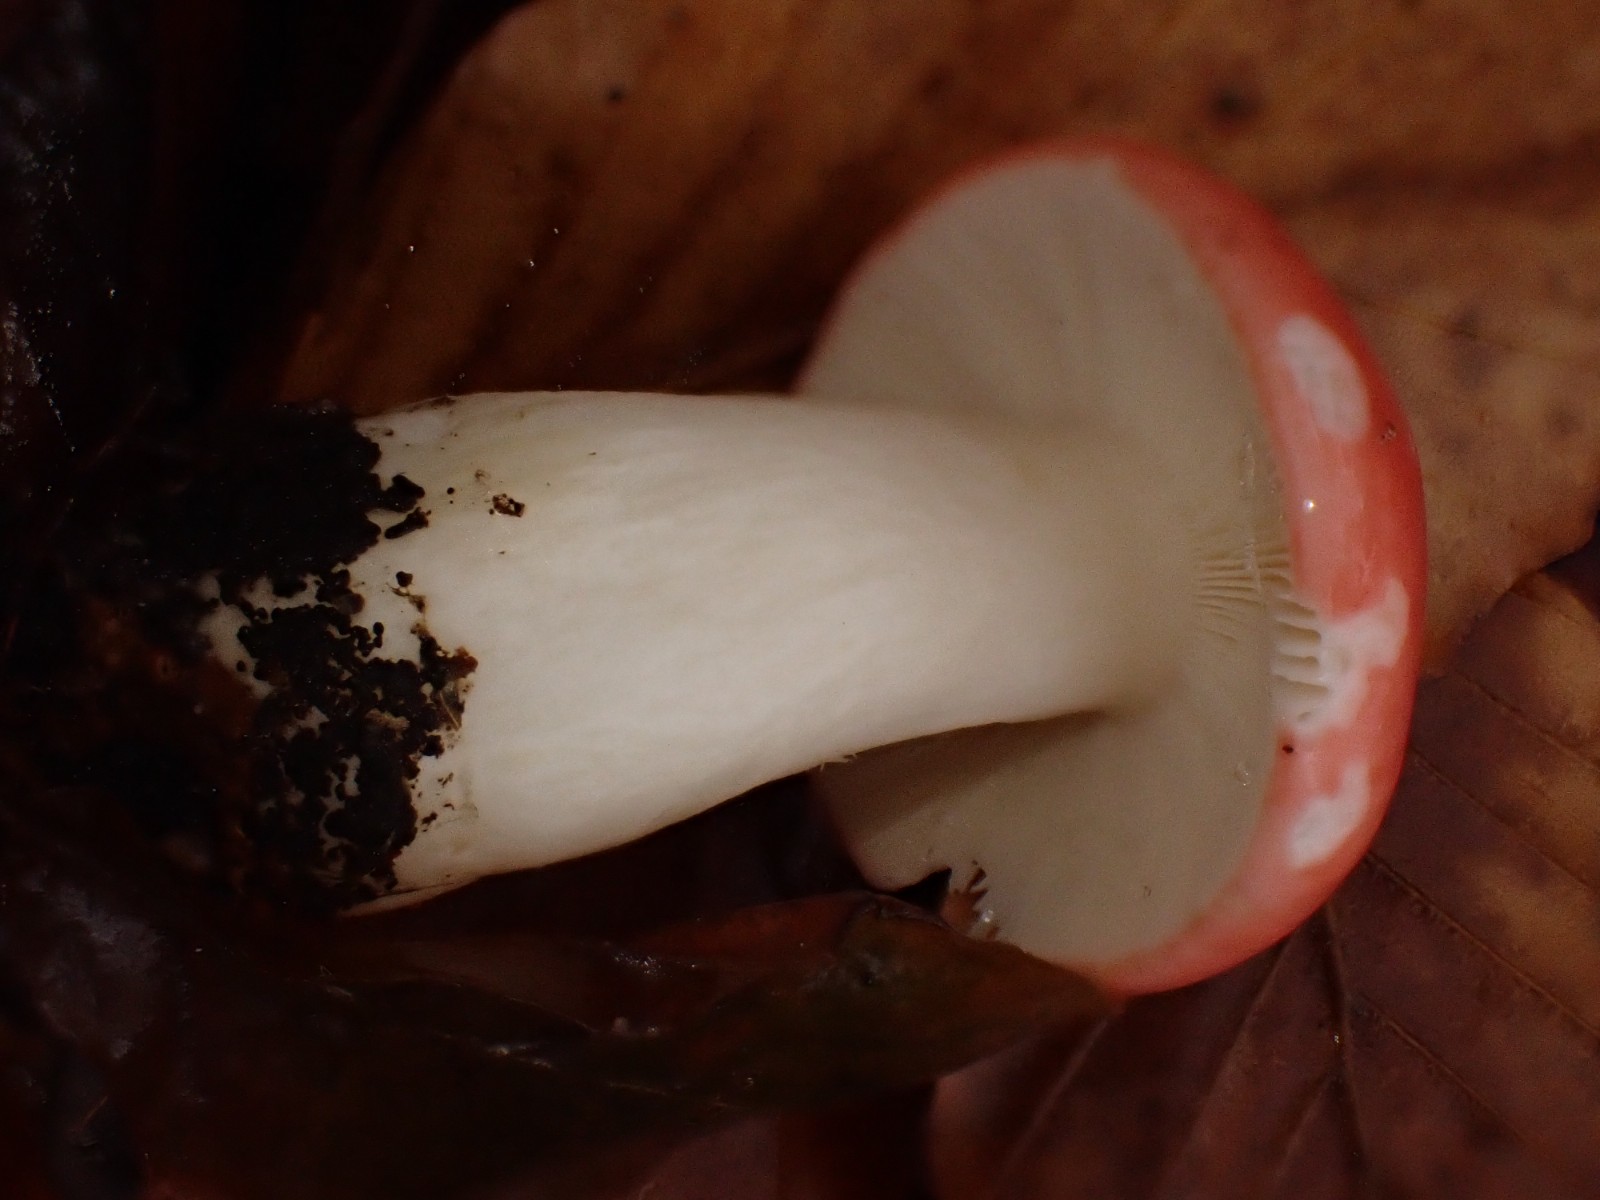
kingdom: Fungi
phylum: Basidiomycota
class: Agaricomycetes
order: Russulales
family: Russulaceae
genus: Russula
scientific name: Russula nobilis
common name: lille gift-skørhat
